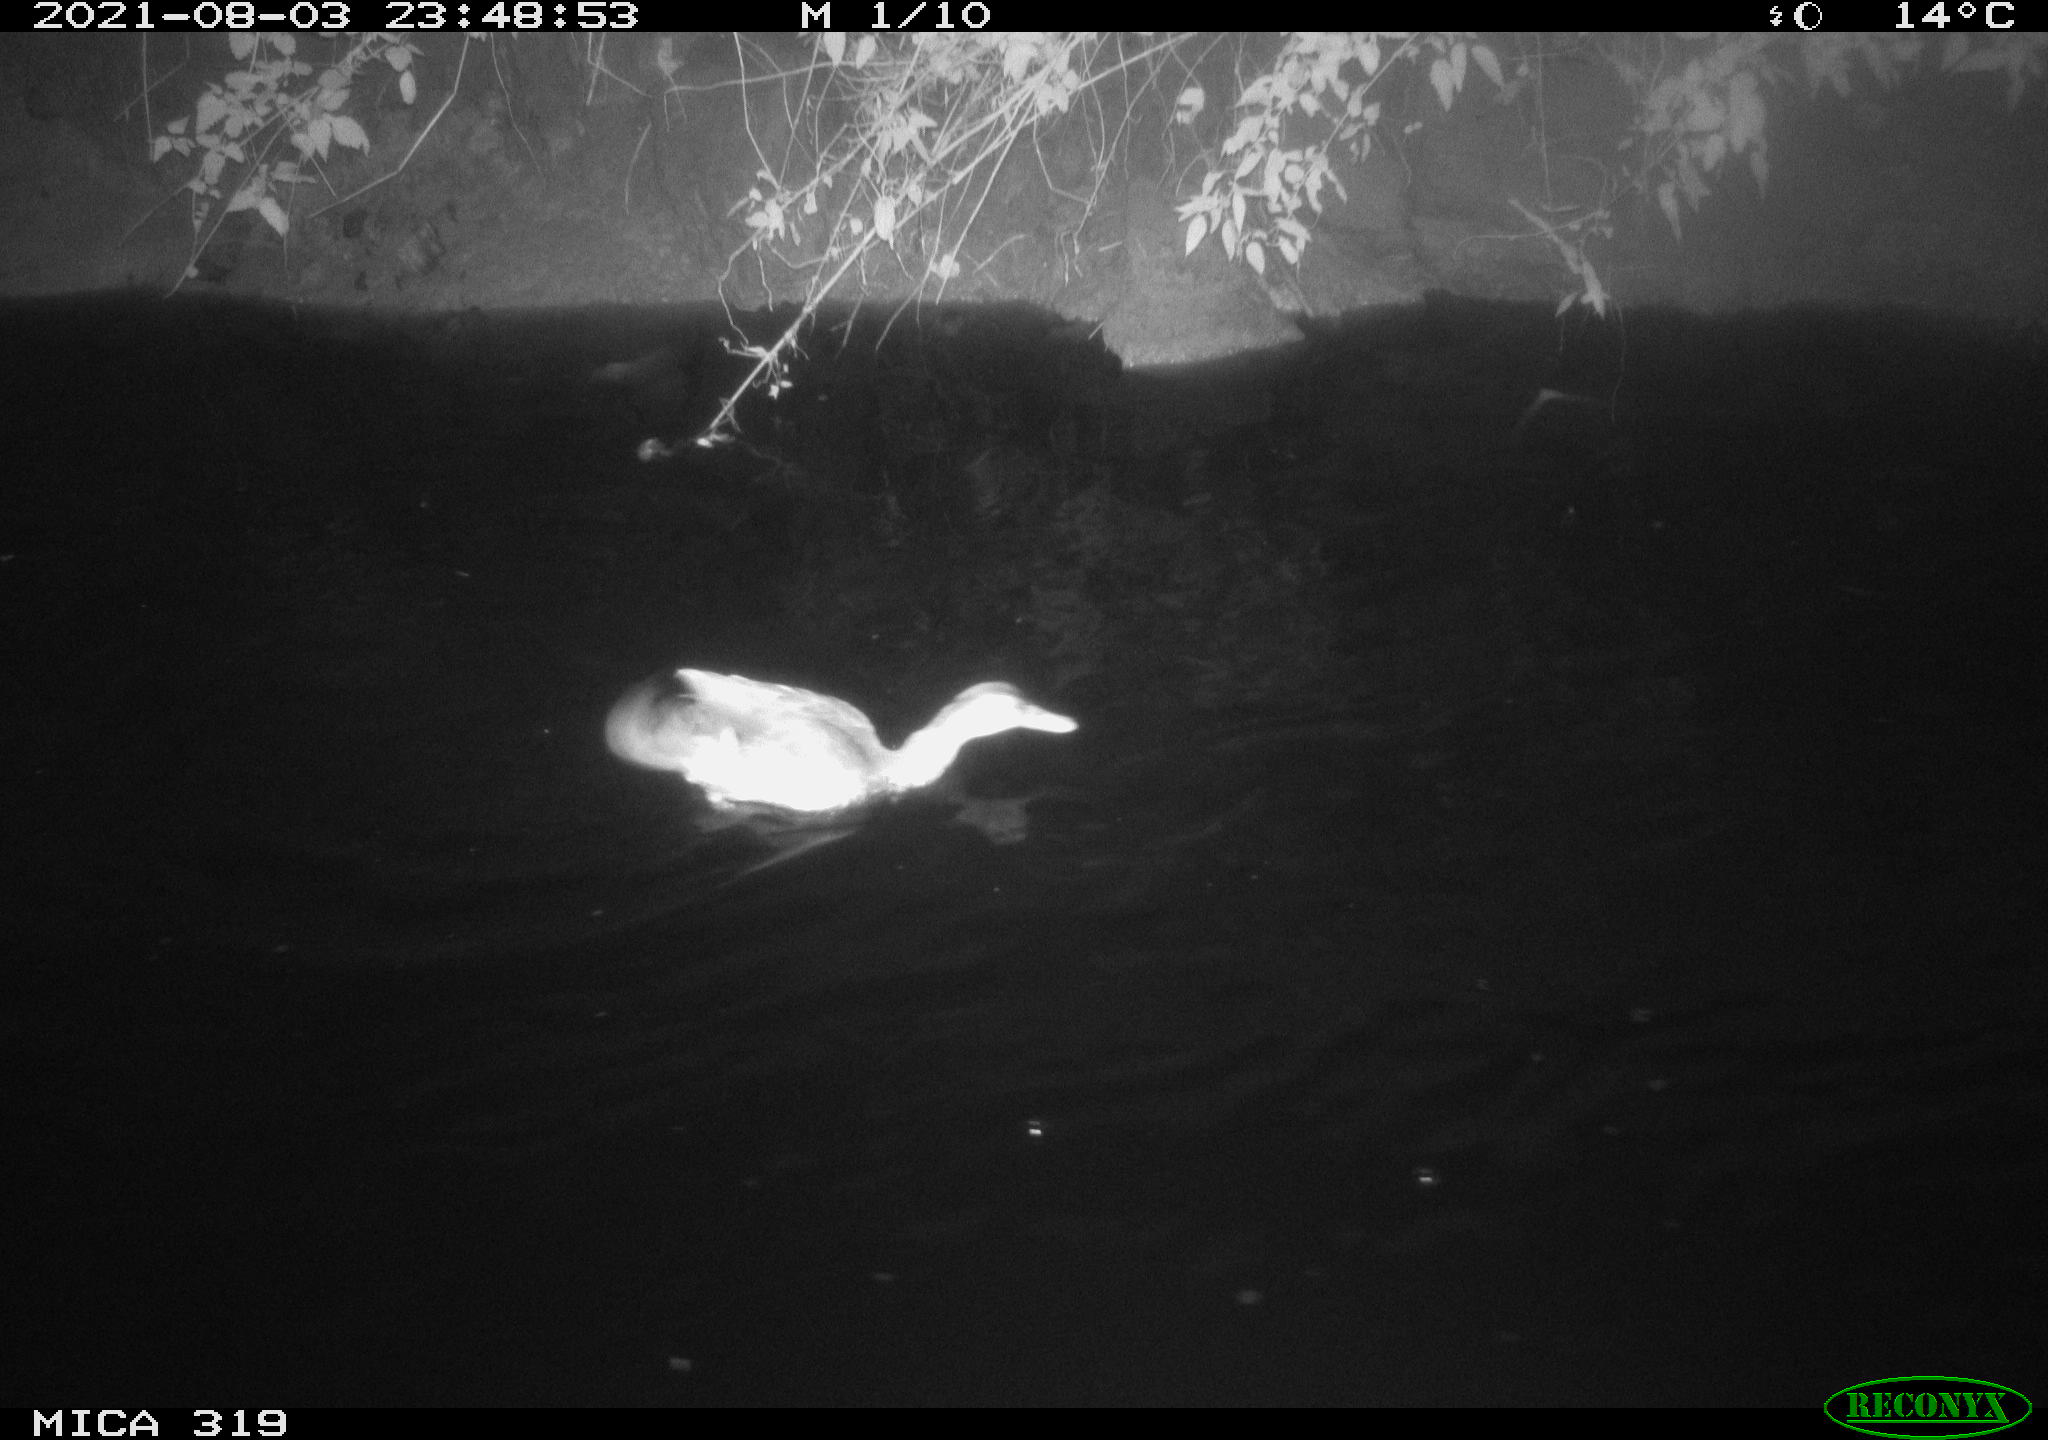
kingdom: Animalia
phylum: Chordata
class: Aves
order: Anseriformes
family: Anatidae
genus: Anas
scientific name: Anas platyrhynchos
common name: Mallard
